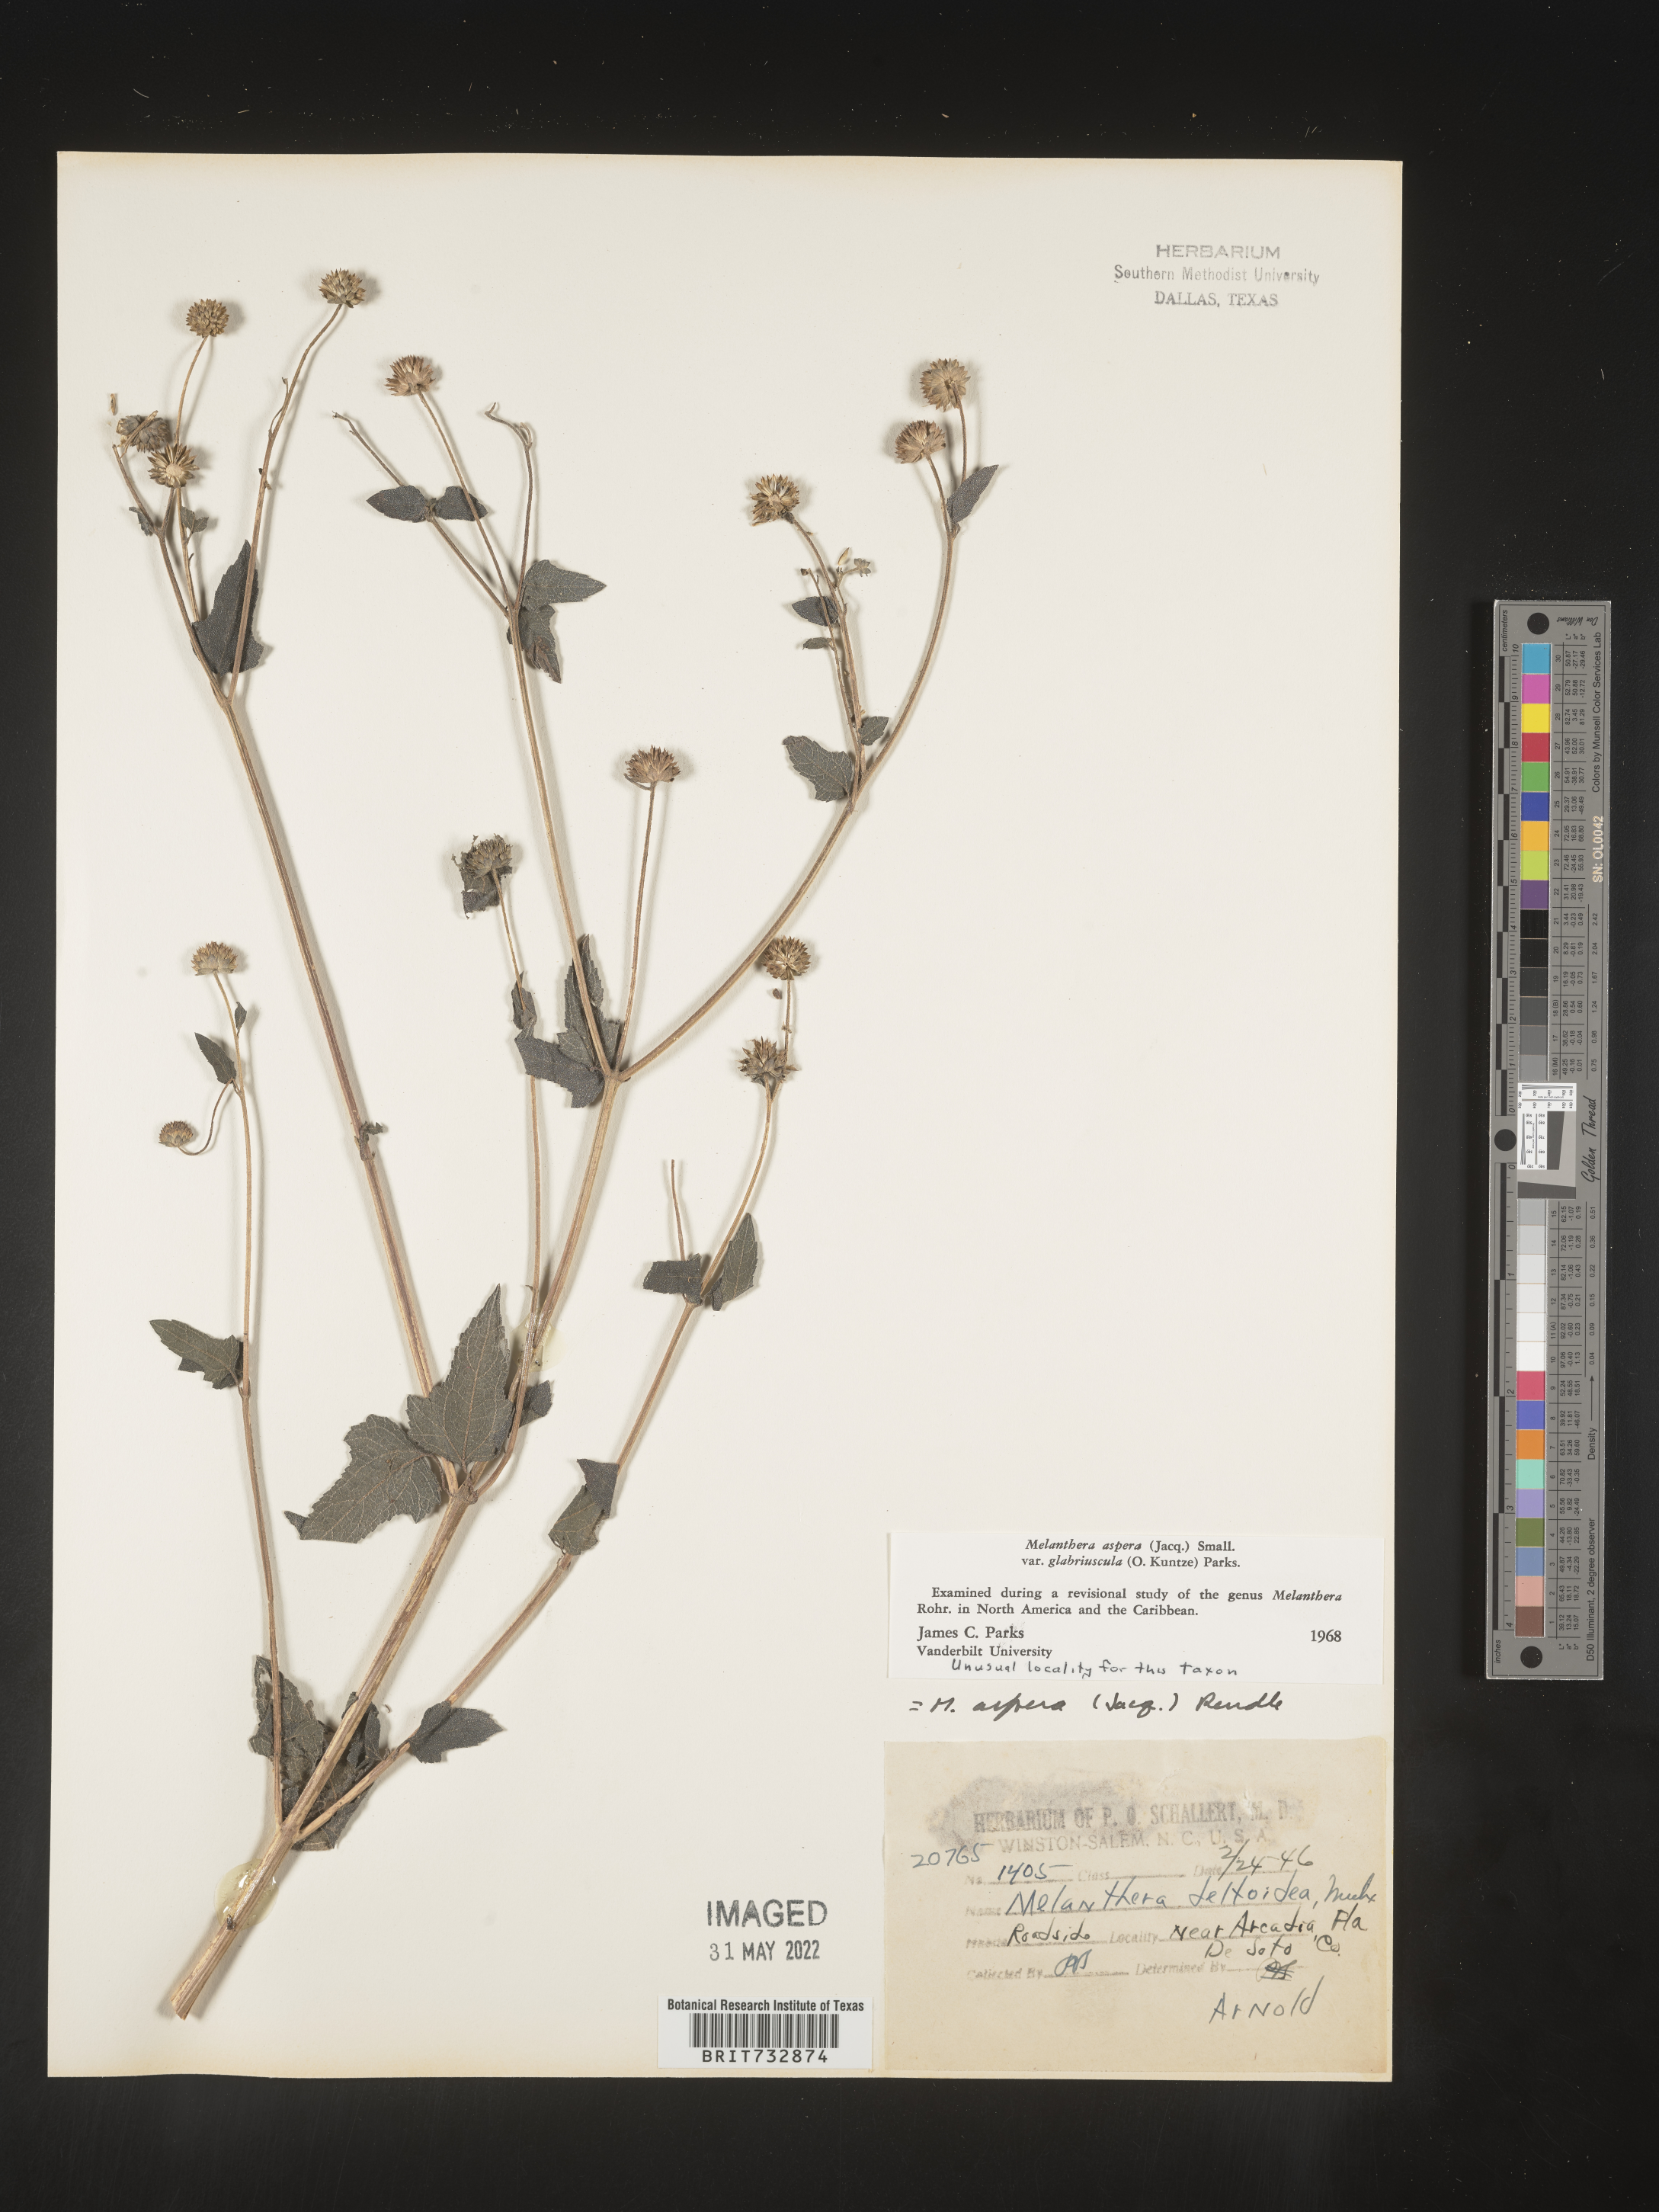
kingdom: Plantae
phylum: Tracheophyta
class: Magnoliopsida
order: Asterales
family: Asteraceae
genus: Melanthera
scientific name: Melanthera nivea
